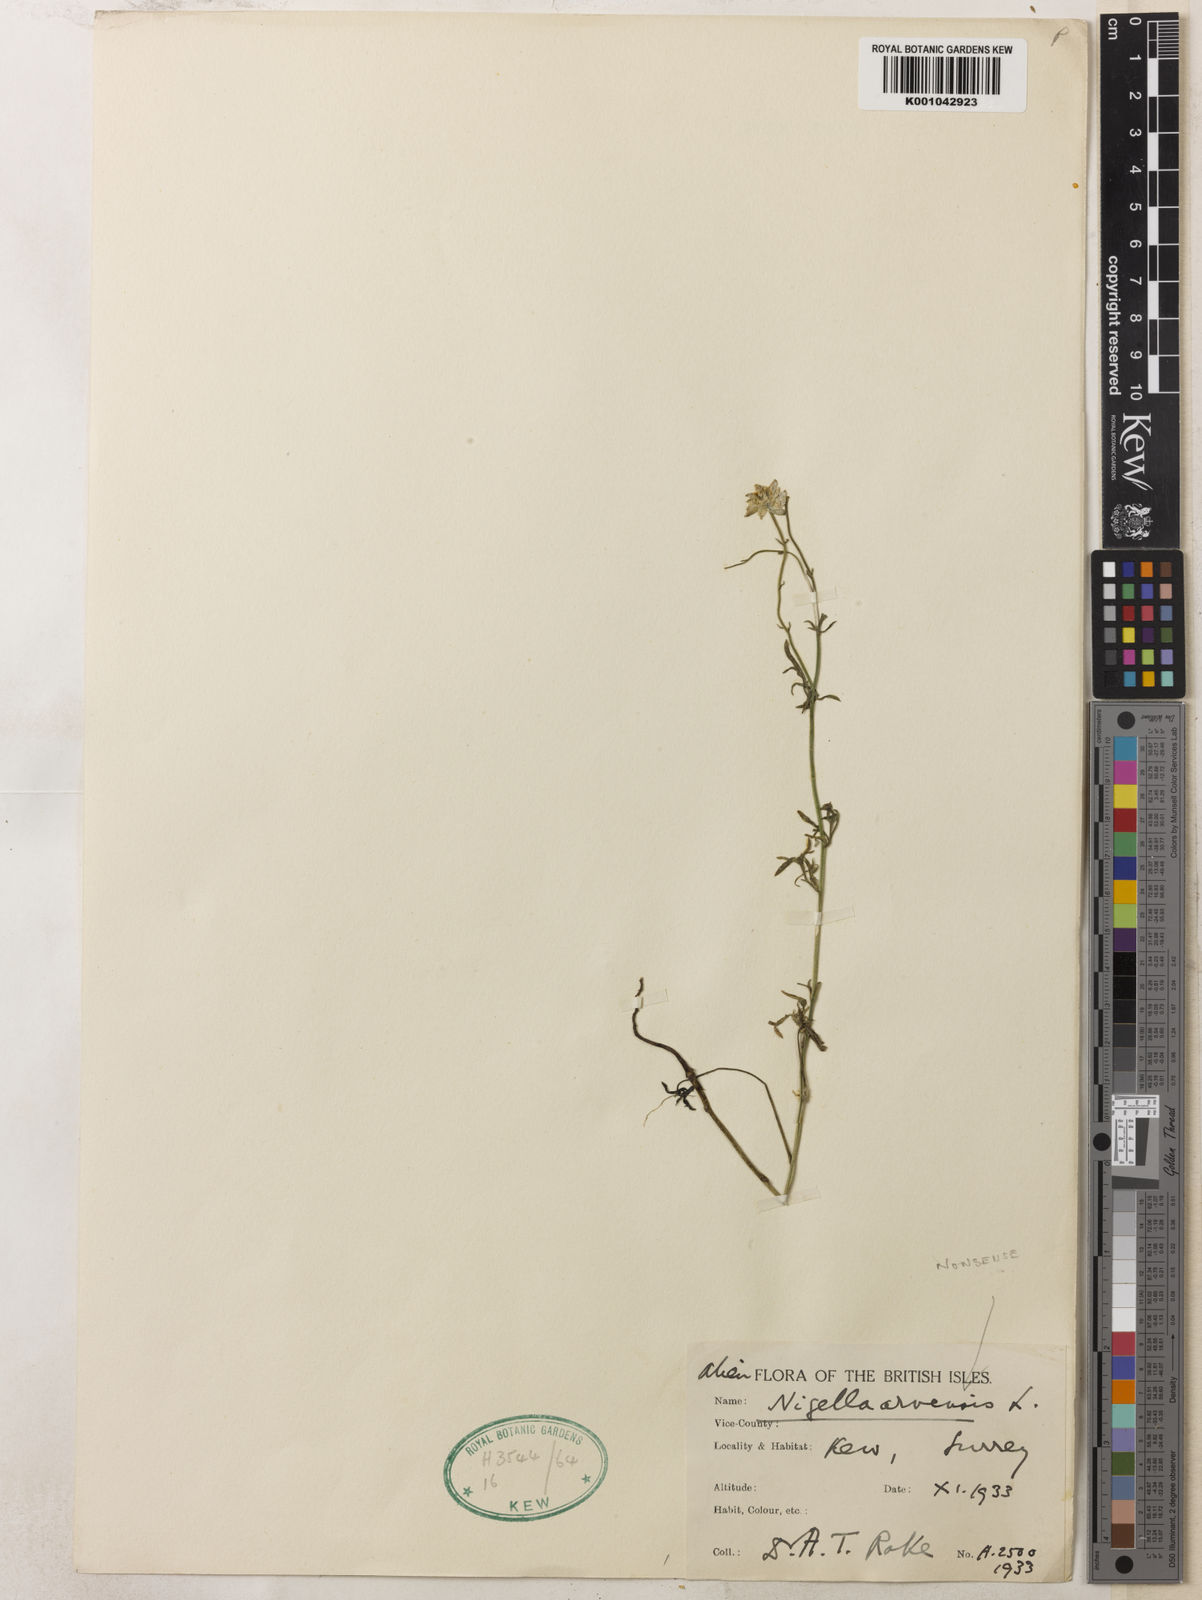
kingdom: Plantae
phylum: Tracheophyta
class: Magnoliopsida
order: Ranunculales
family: Ranunculaceae
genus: Nigella
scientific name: Nigella stricta
